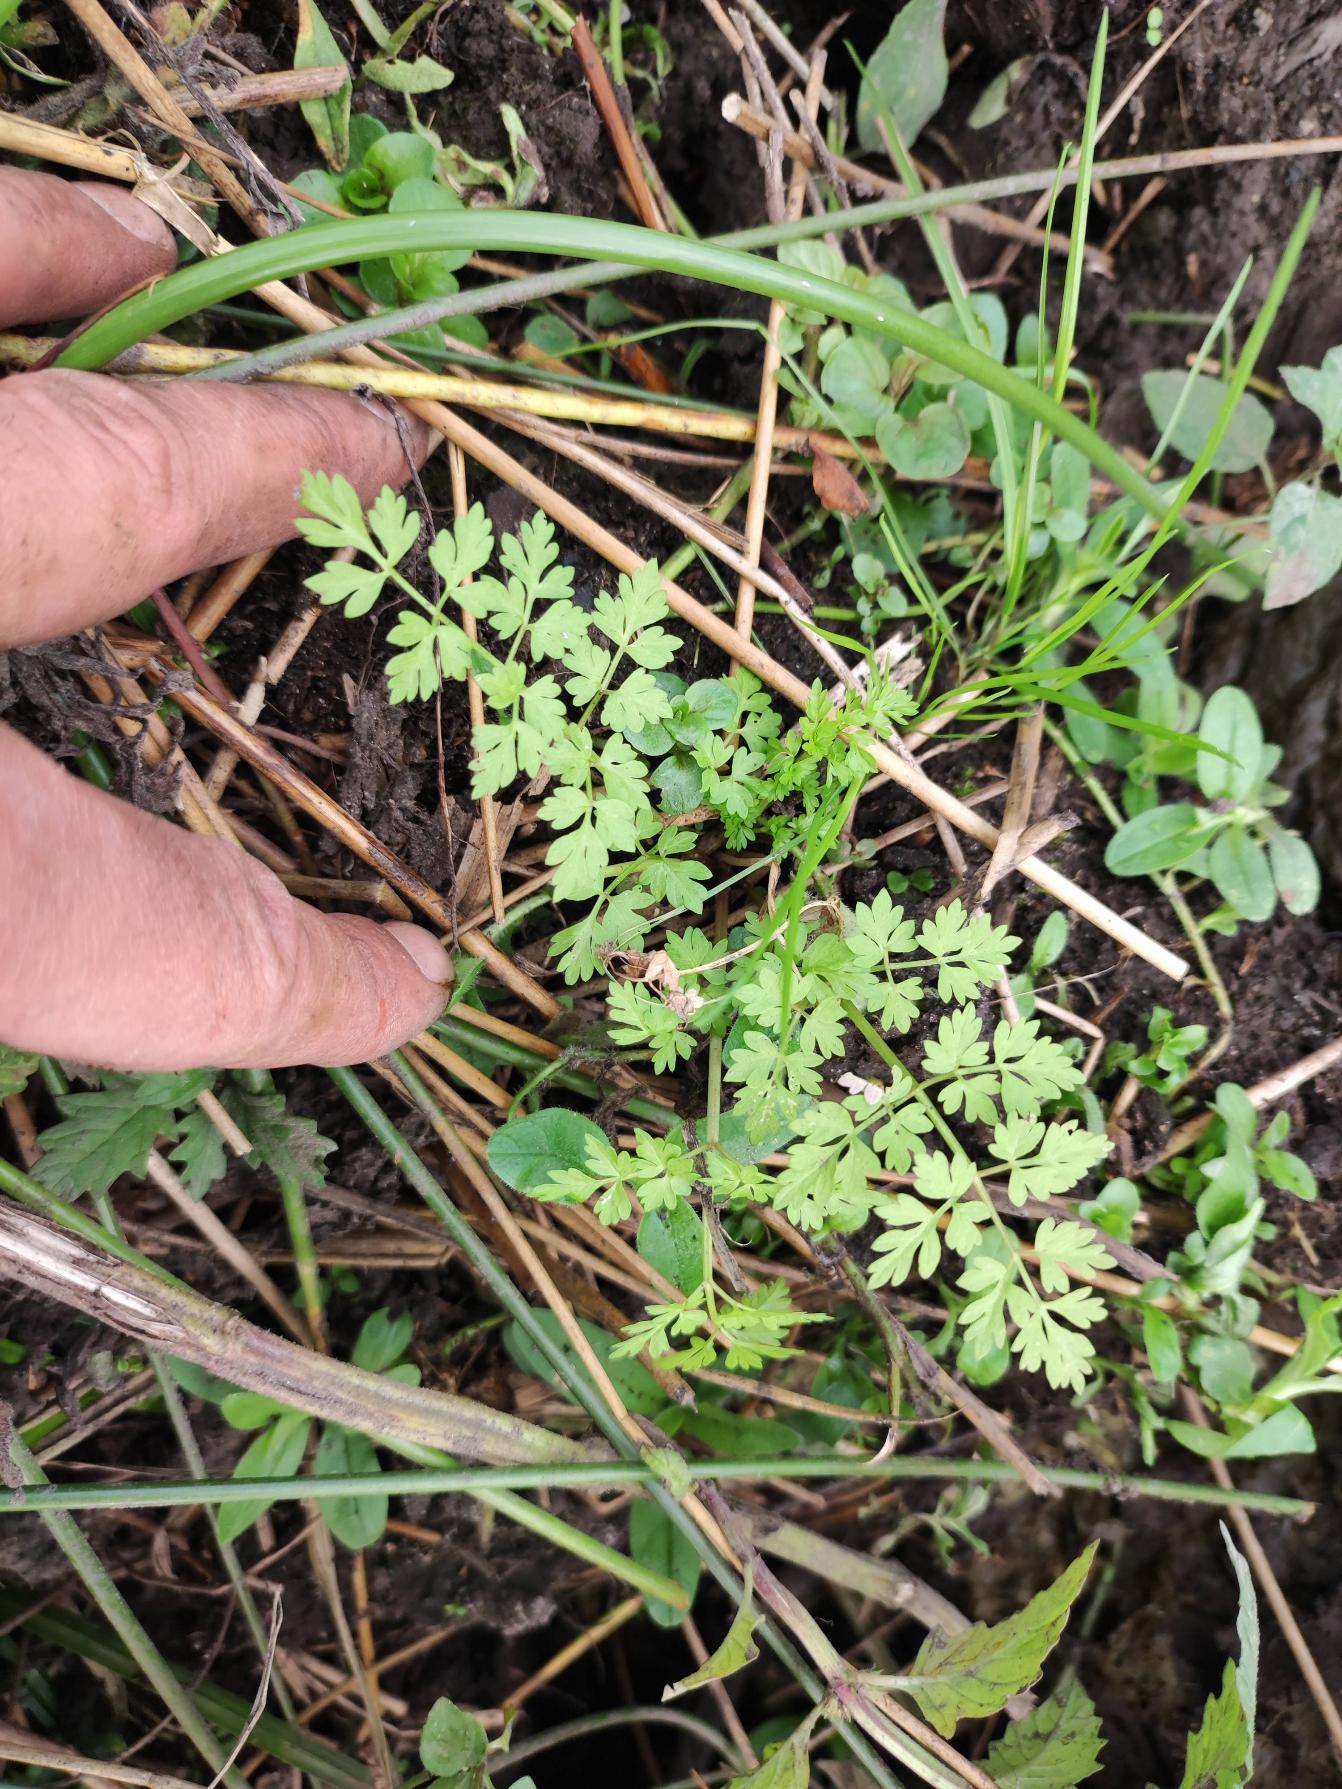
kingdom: Plantae
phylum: Tracheophyta
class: Magnoliopsida
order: Apiales
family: Apiaceae
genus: Oenanthe
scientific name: Oenanthe aquatica
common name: Billebo-klaseskærm
